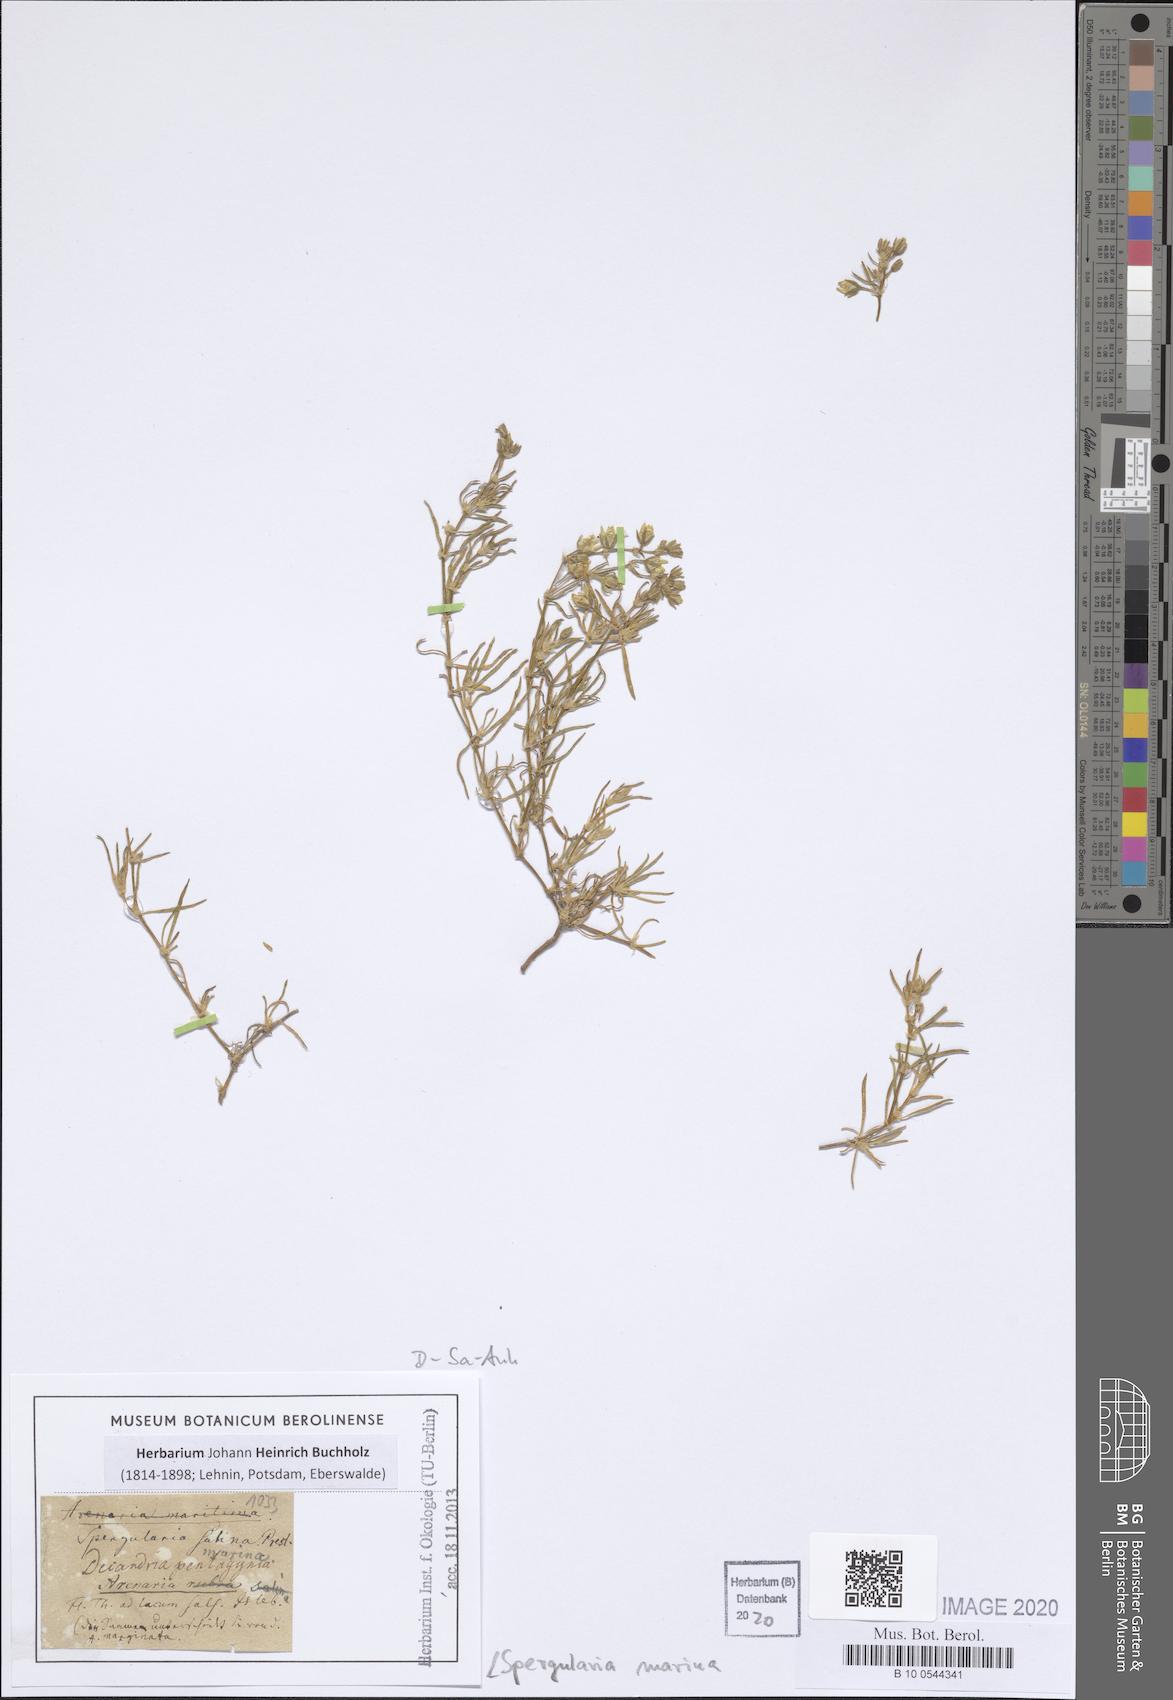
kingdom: Plantae
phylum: Tracheophyta
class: Magnoliopsida
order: Caryophyllales
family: Caryophyllaceae
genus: Spergularia
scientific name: Spergularia marina
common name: Lesser sea-spurrey
